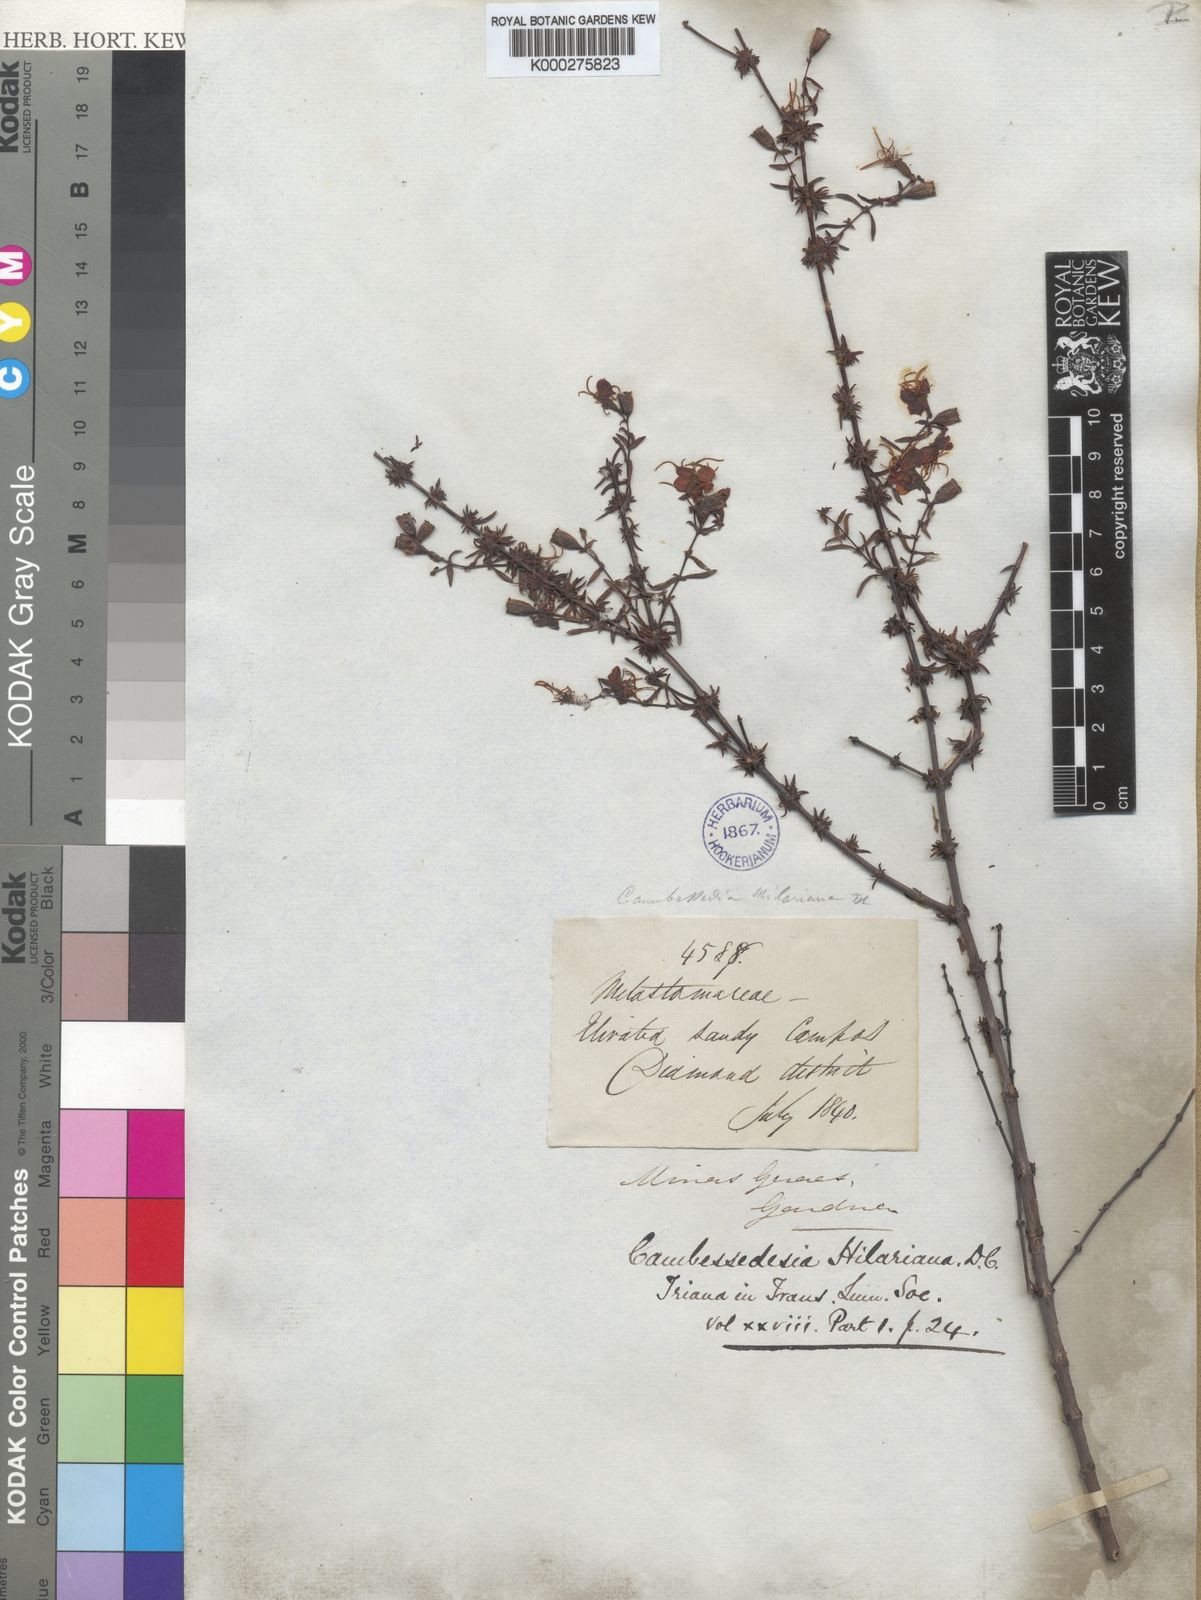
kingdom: Plantae
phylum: Tracheophyta
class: Magnoliopsida
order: Myrtales
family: Melastomataceae
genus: Cambessedesia
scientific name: Cambessedesia hilariana
